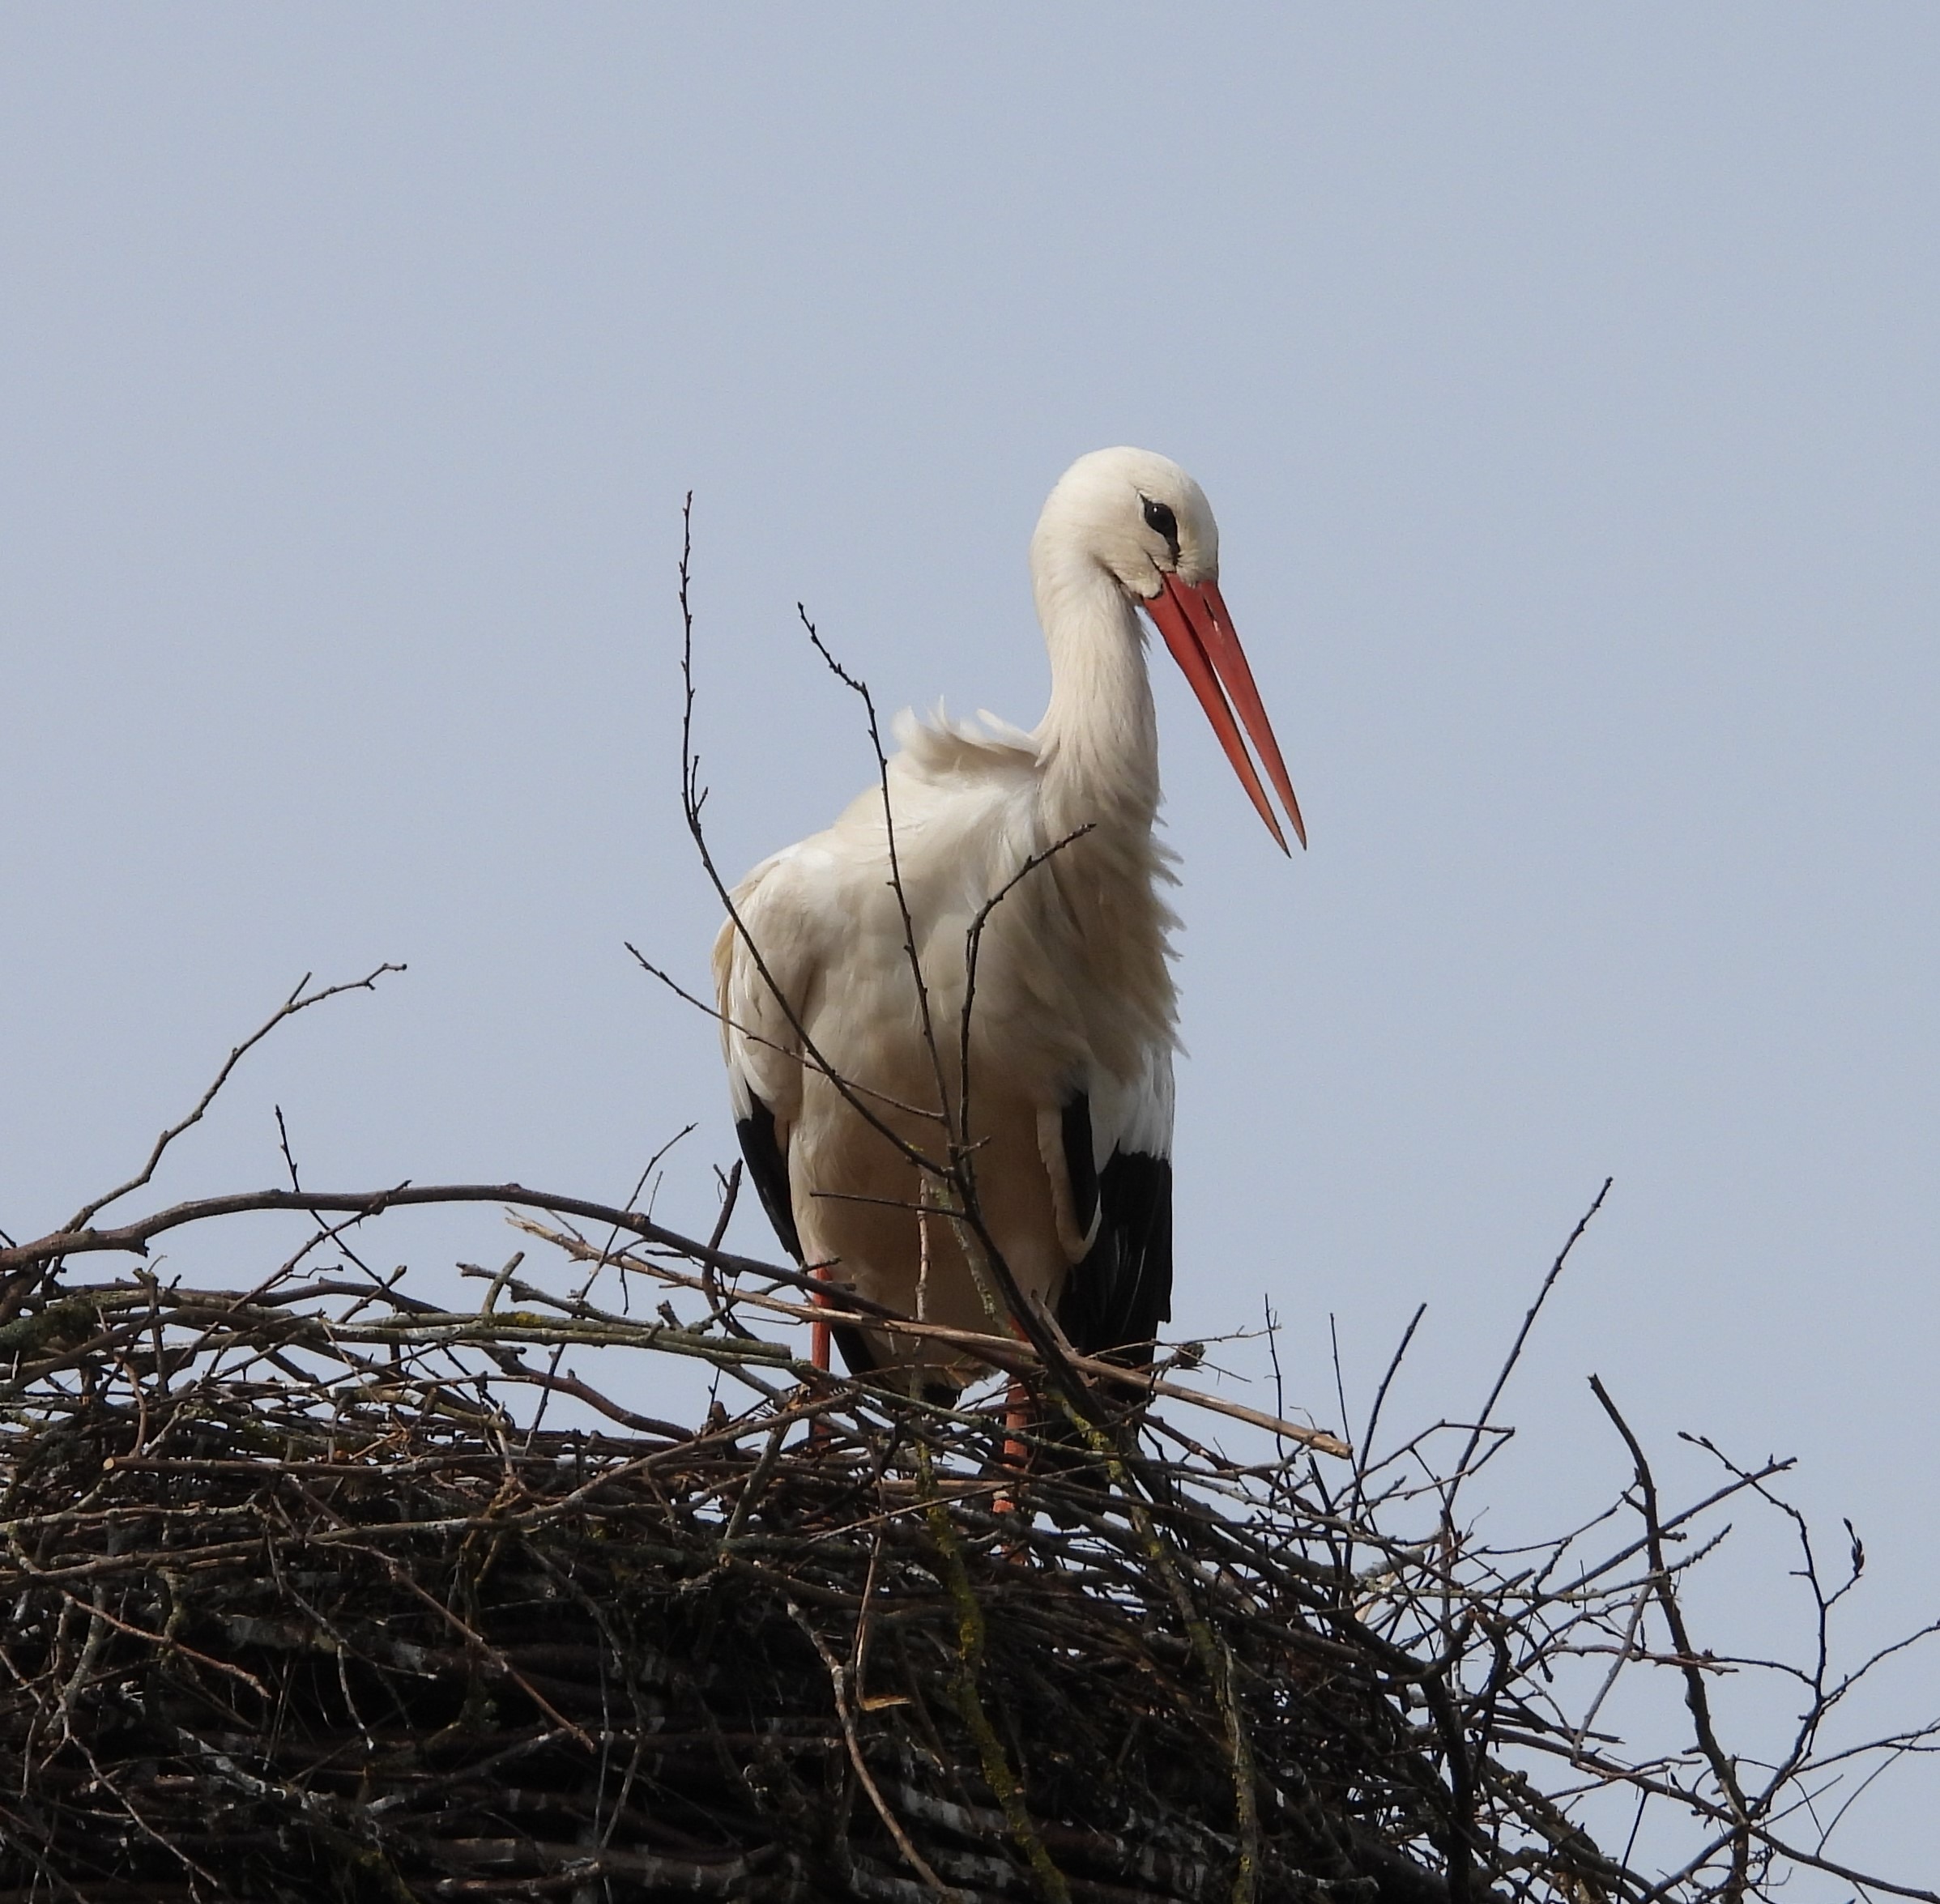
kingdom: Animalia
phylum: Chordata
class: Aves
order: Ciconiiformes
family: Ciconiidae
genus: Ciconia
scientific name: Ciconia ciconia
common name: Hvid stork
